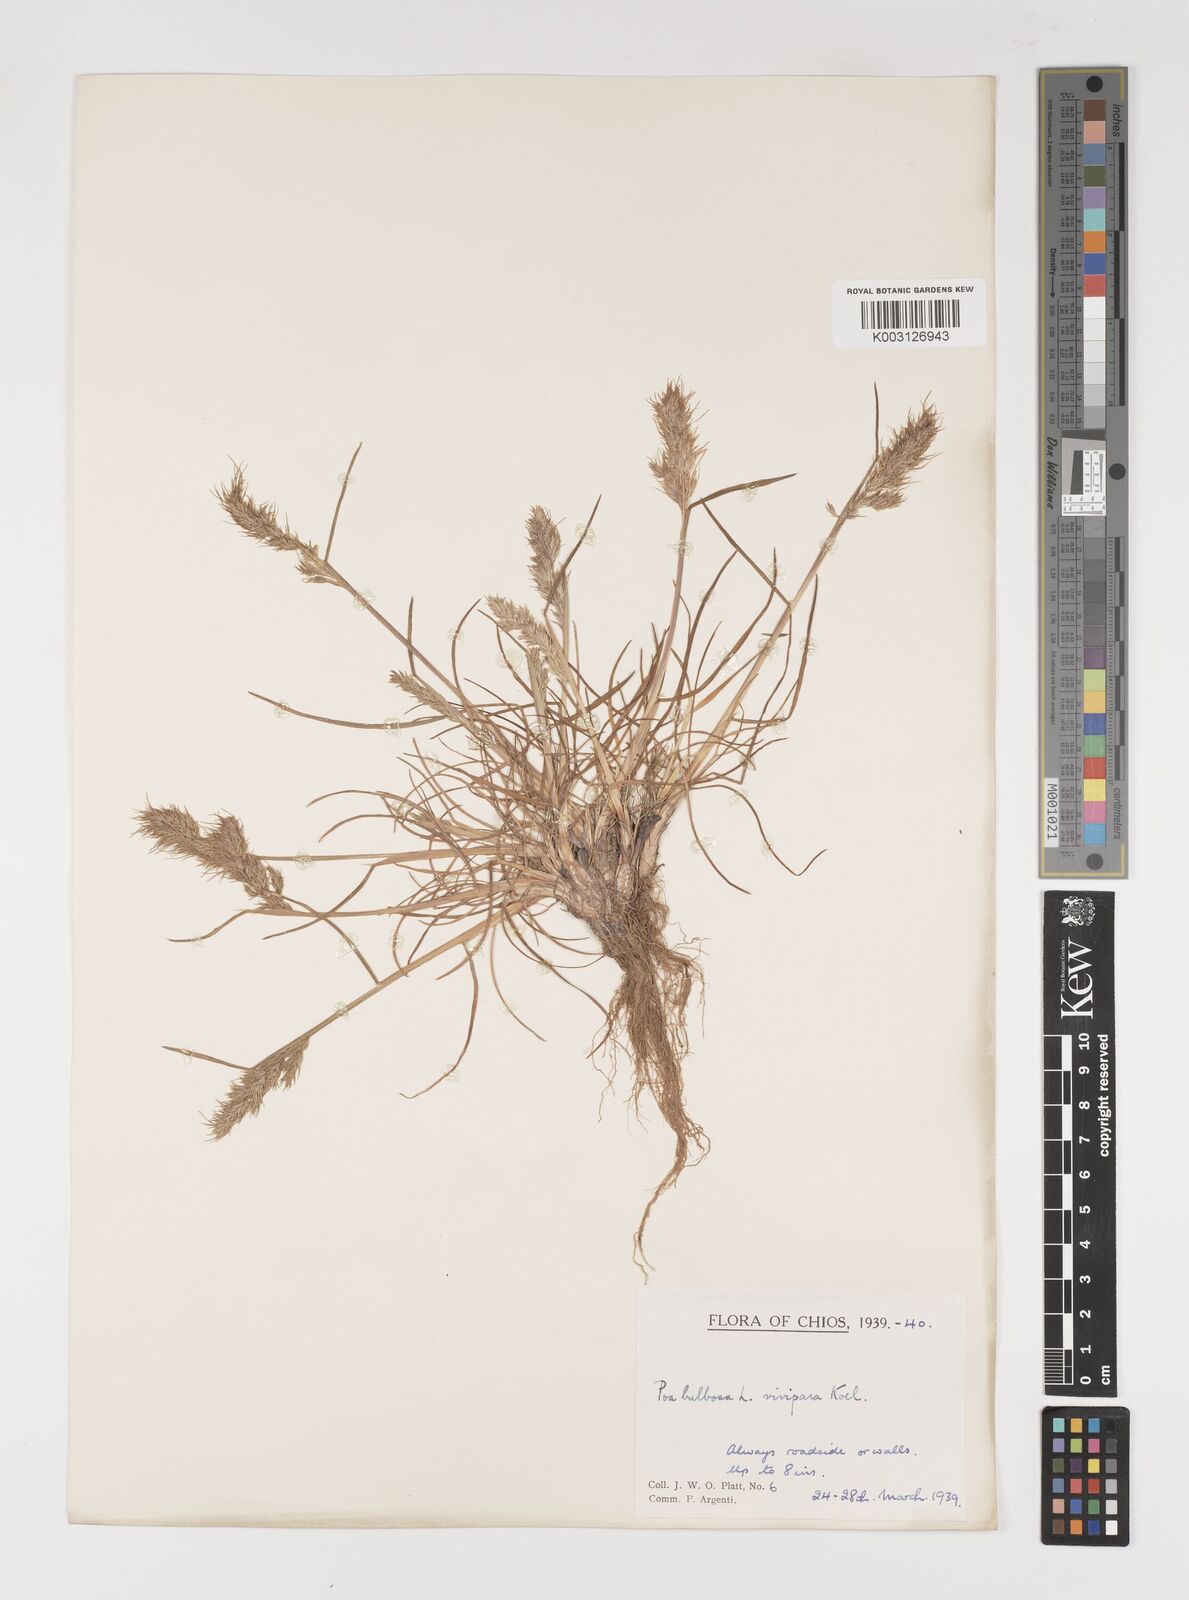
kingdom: Plantae
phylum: Tracheophyta
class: Liliopsida
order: Poales
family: Poaceae
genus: Poa
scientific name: Poa bulbosa
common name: Bulbous bluegrass
